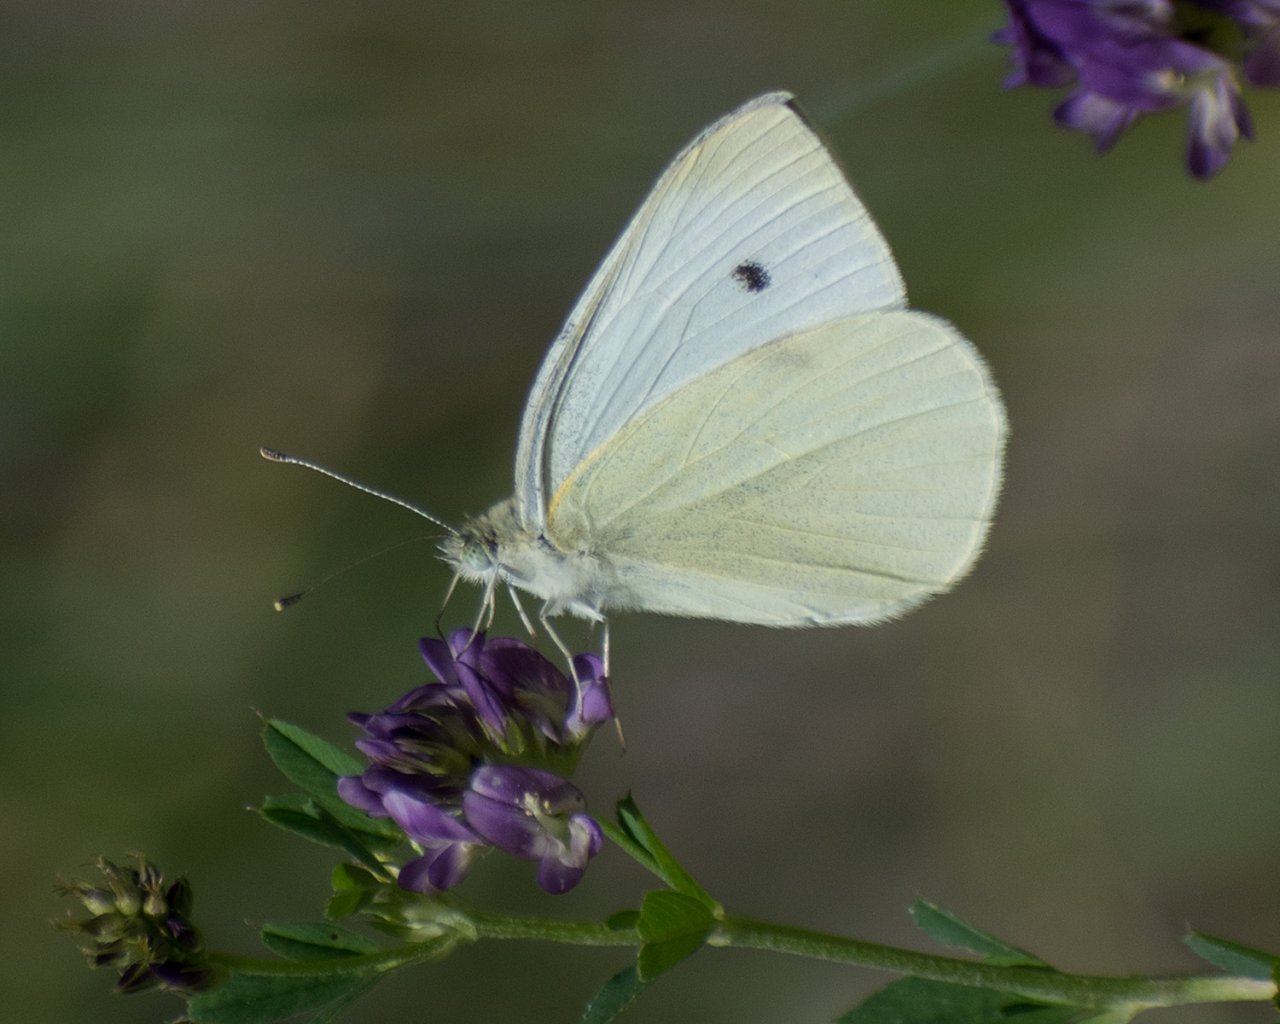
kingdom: Animalia
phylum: Arthropoda
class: Insecta
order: Lepidoptera
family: Pieridae
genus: Pieris
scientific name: Pieris rapae
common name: Cabbage White
